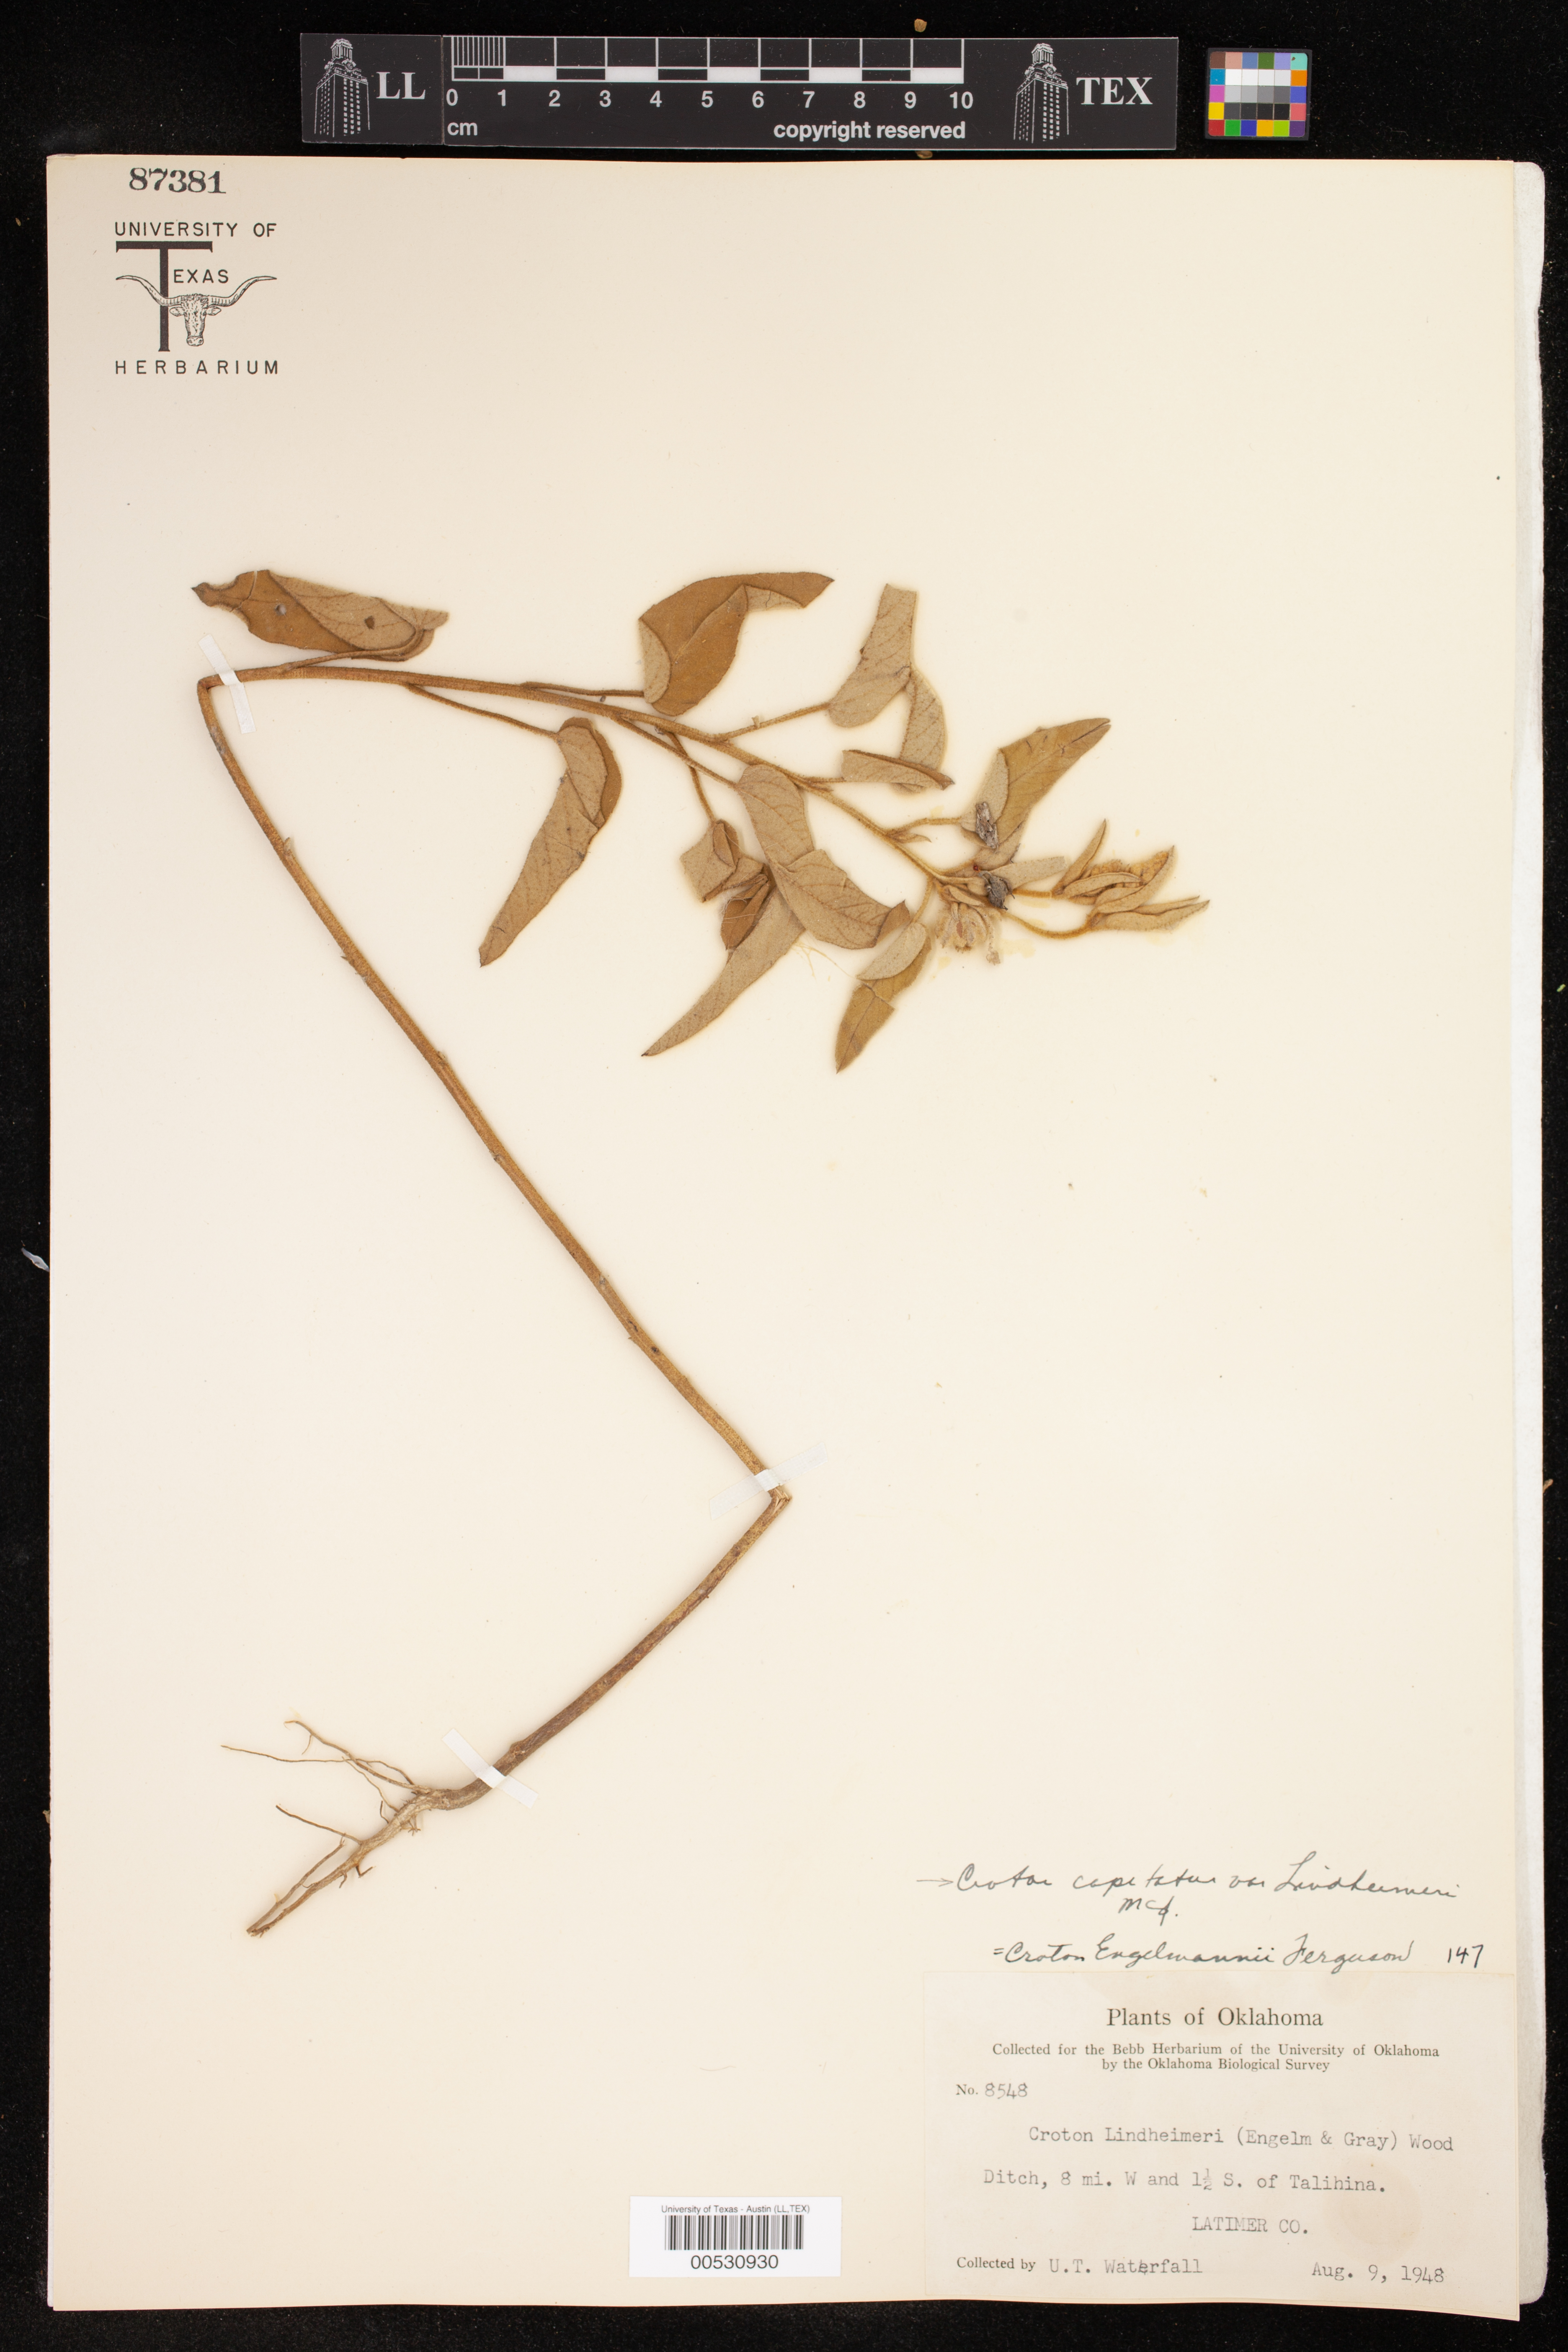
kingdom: Plantae
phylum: Tracheophyta
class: Magnoliopsida
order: Malpighiales
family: Euphorbiaceae
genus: Croton
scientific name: Croton lindheimeri
